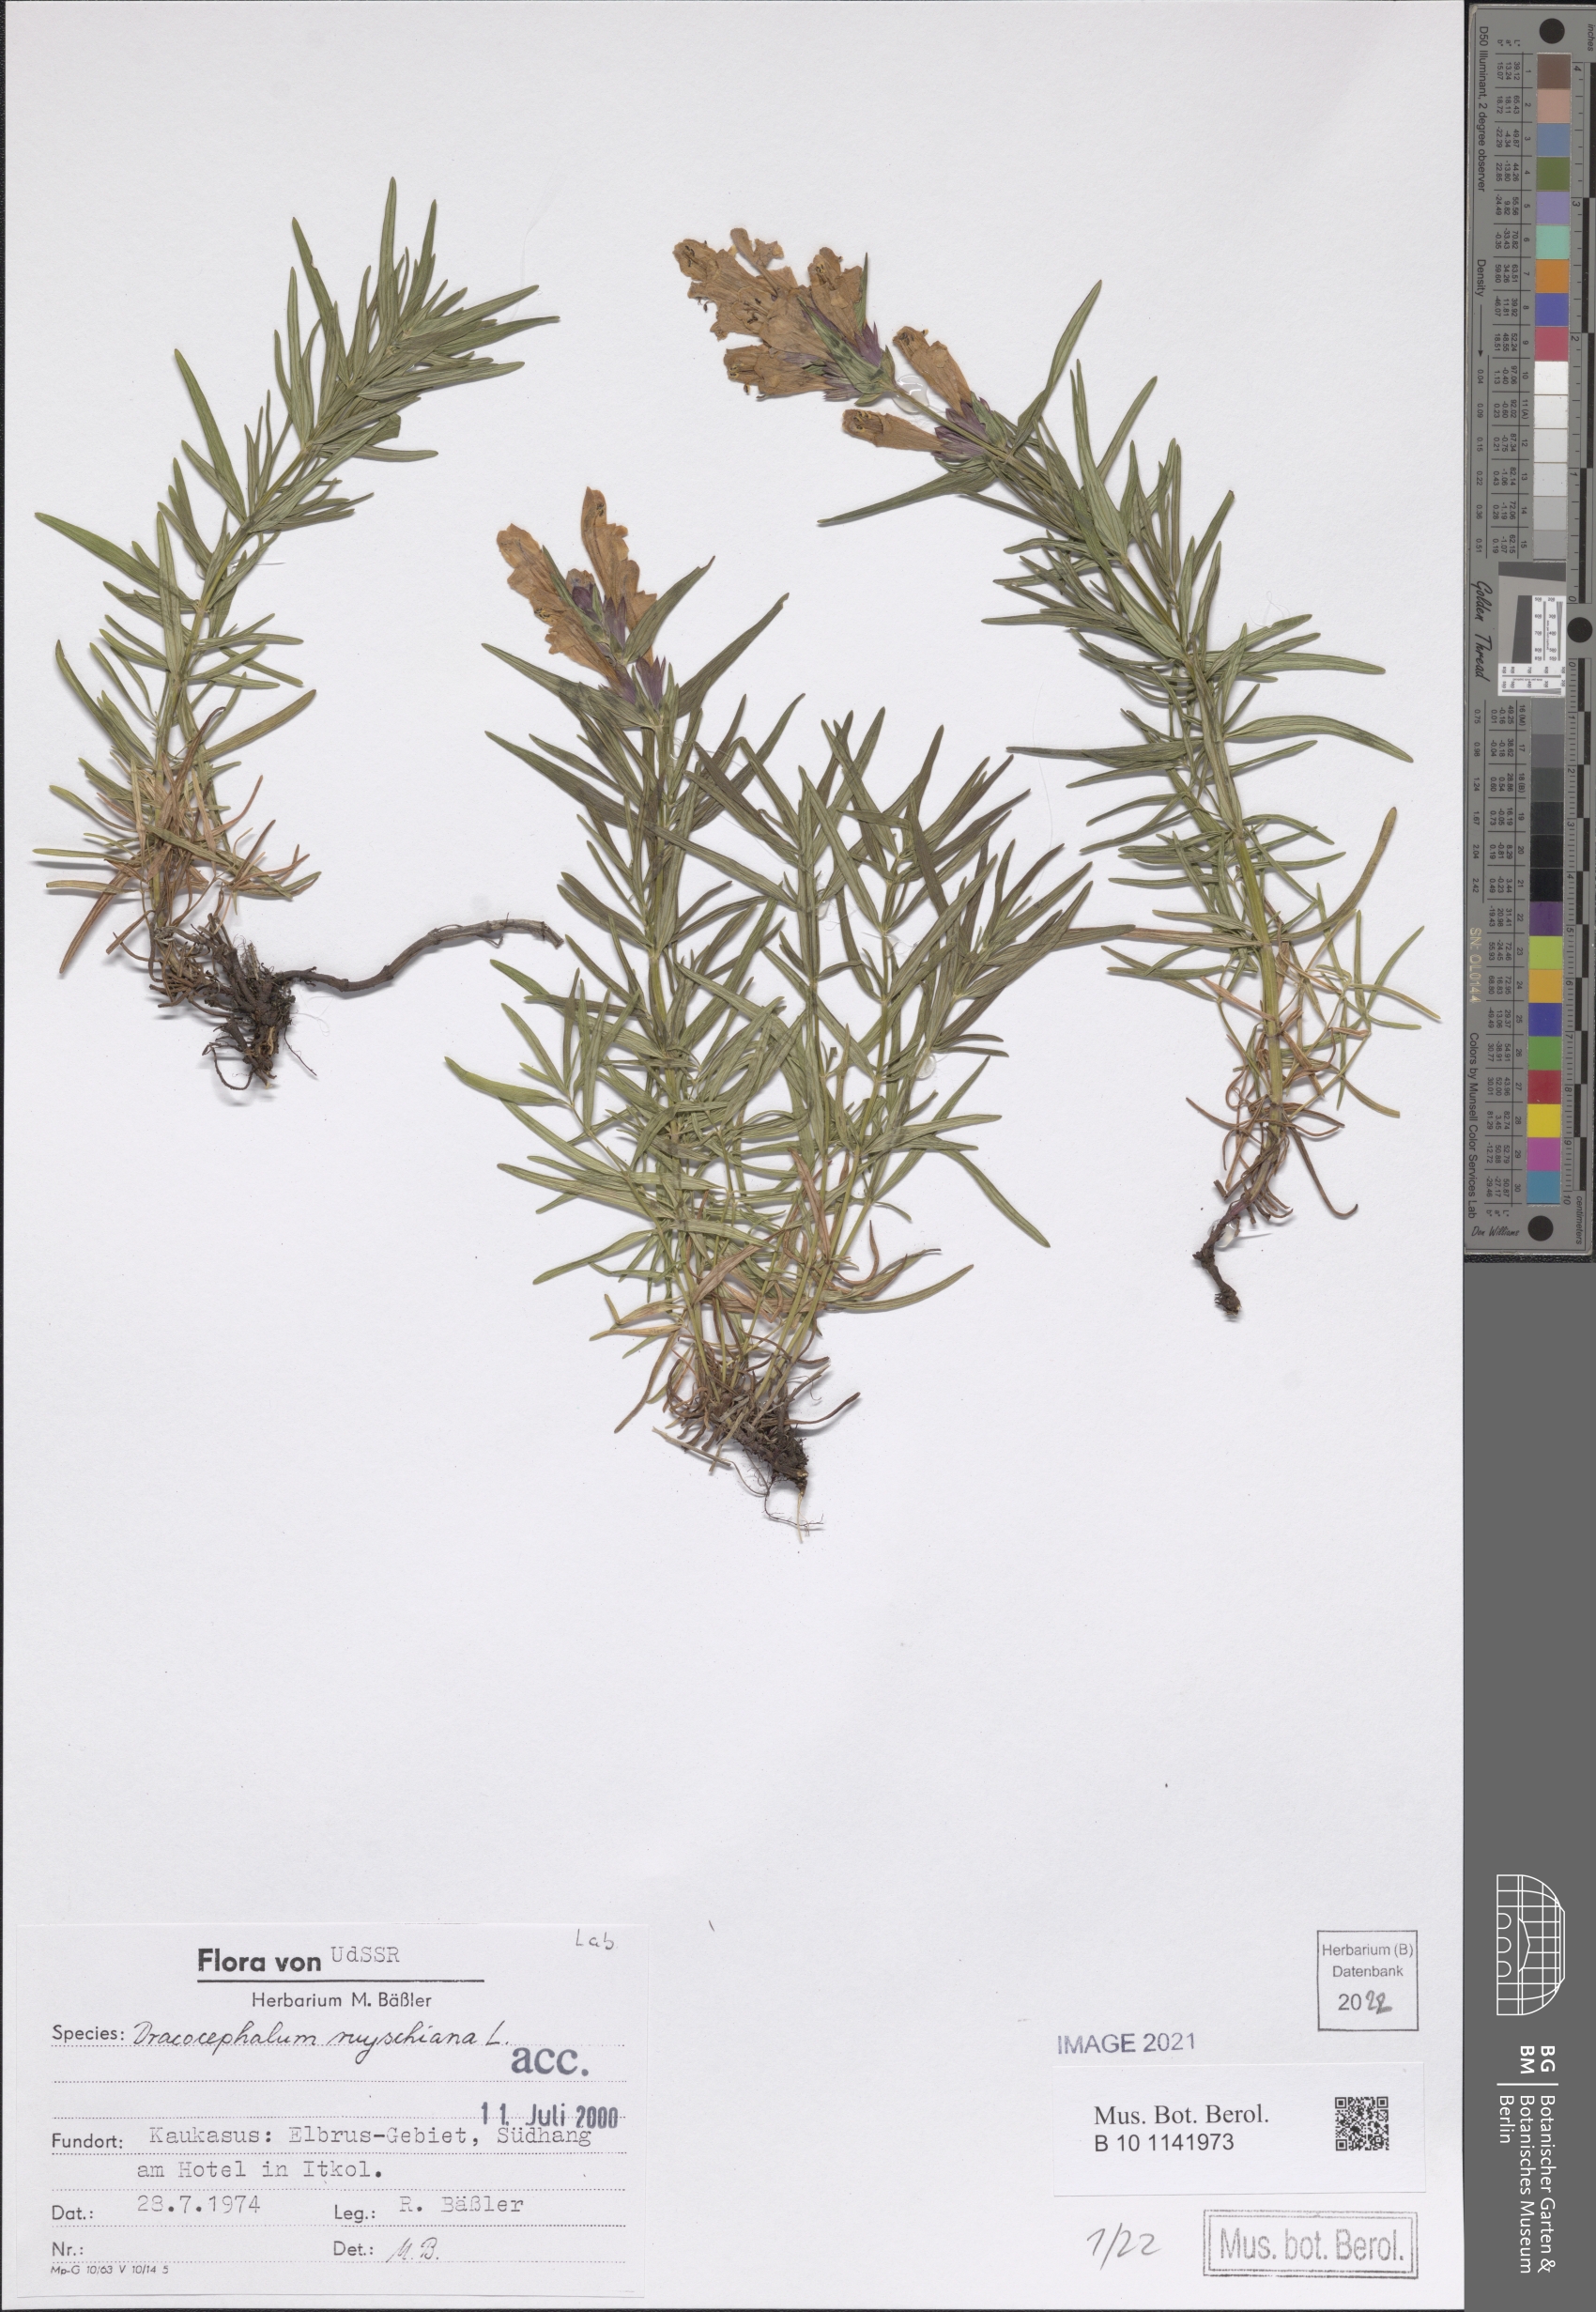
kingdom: Plantae
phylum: Tracheophyta
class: Magnoliopsida
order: Lamiales
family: Lamiaceae
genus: Dracocephalum
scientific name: Dracocephalum ruyschiana
